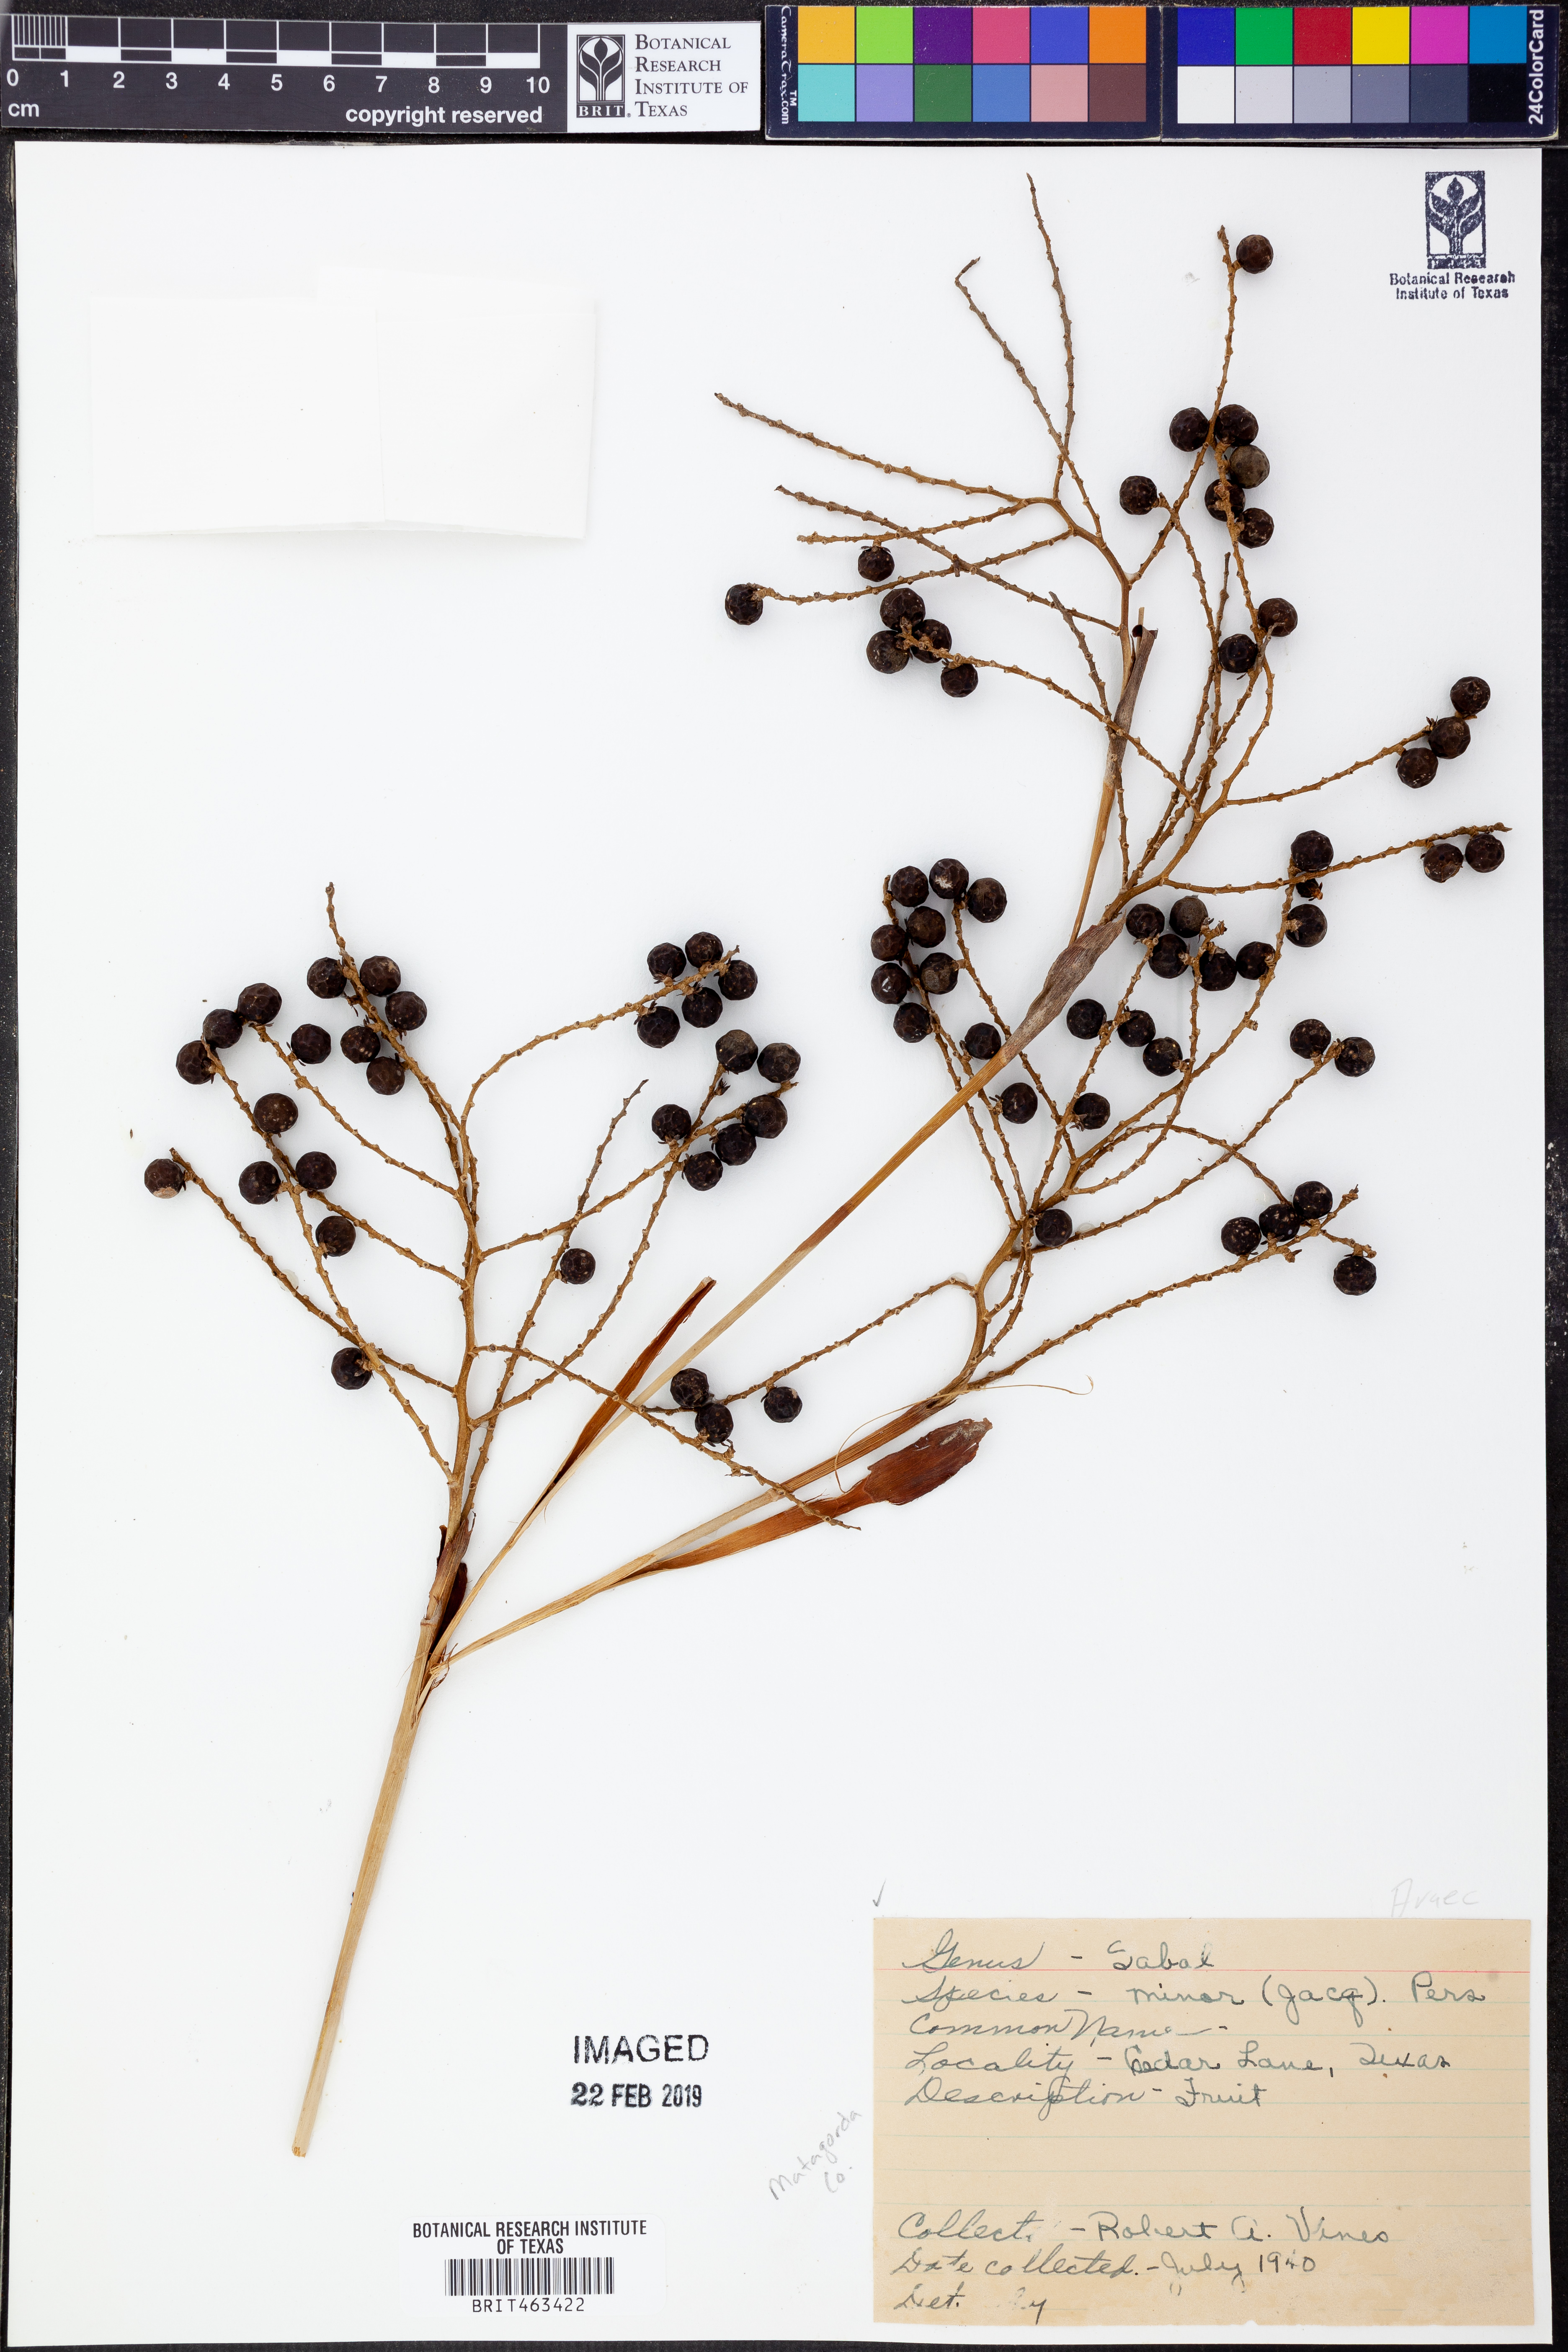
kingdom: Plantae
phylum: Tracheophyta
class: Liliopsida
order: Arecales
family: Arecaceae
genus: Sabal
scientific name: Sabal minor
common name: Dwarf palmetto
